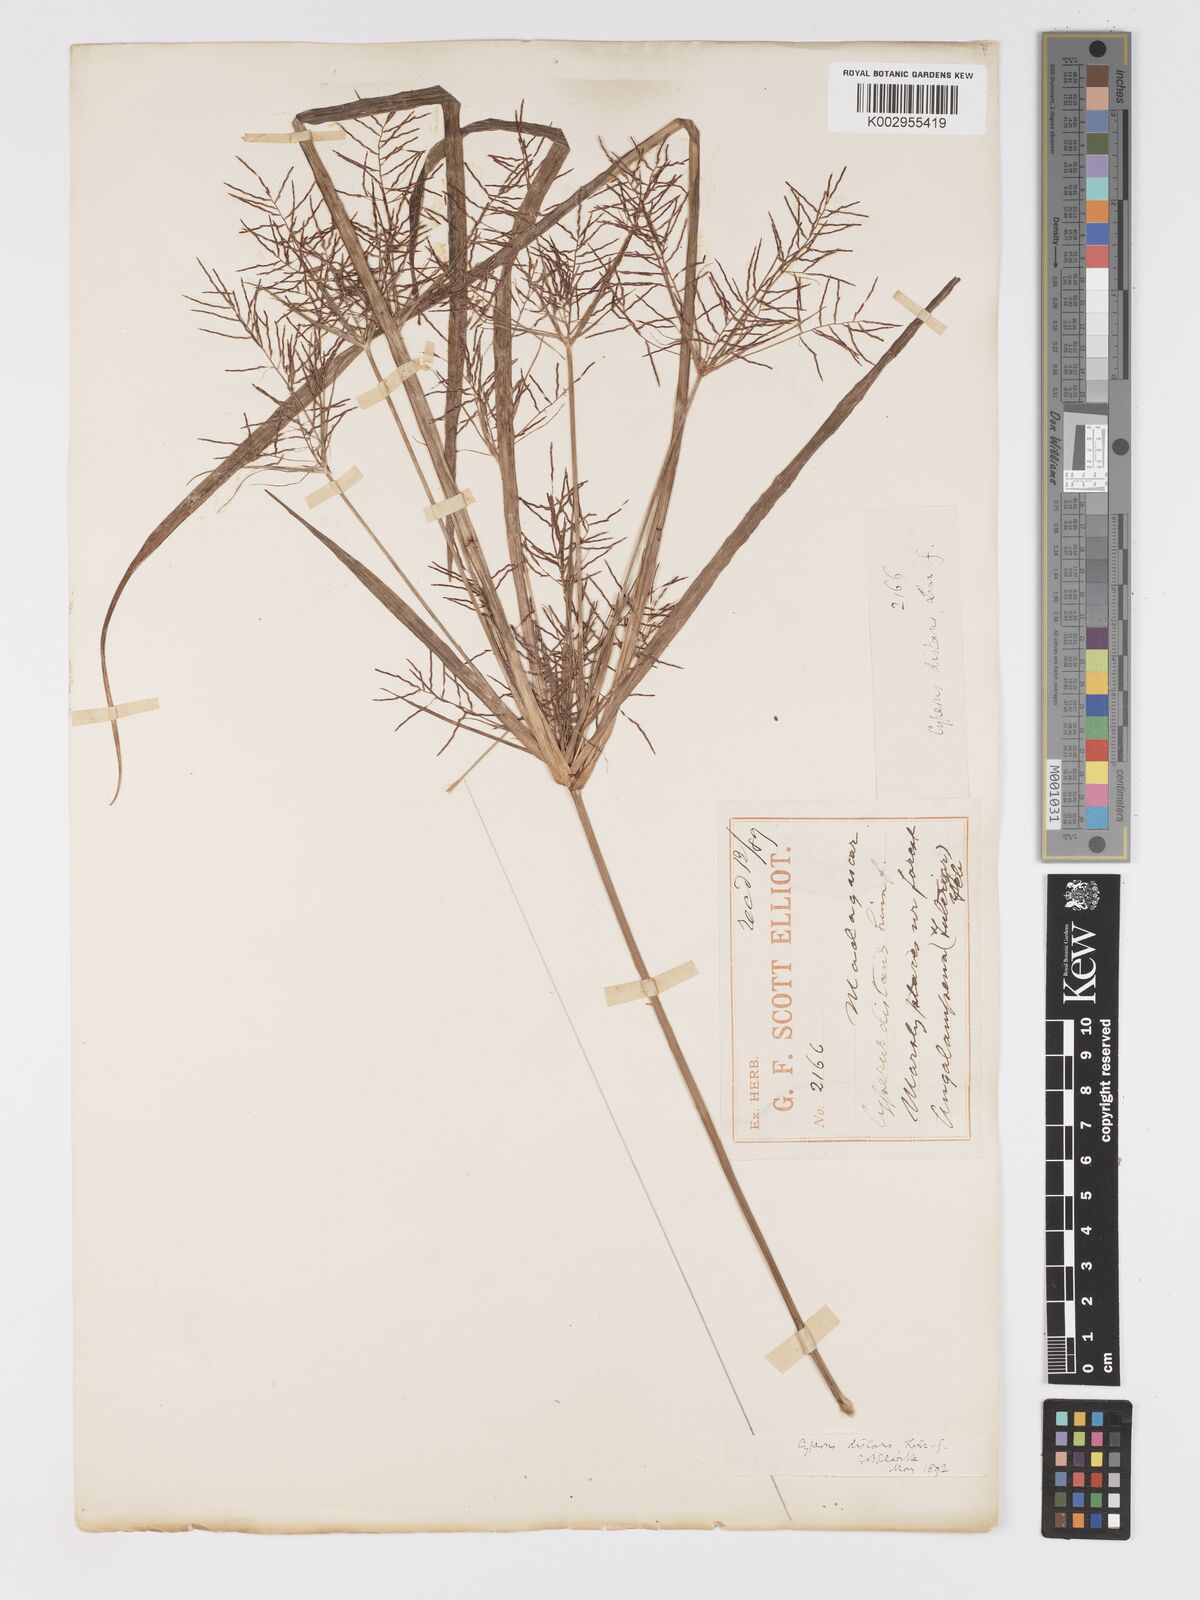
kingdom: Plantae
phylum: Tracheophyta
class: Liliopsida
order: Poales
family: Cyperaceae
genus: Cyperus
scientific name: Cyperus distans
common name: Slender cyperus
